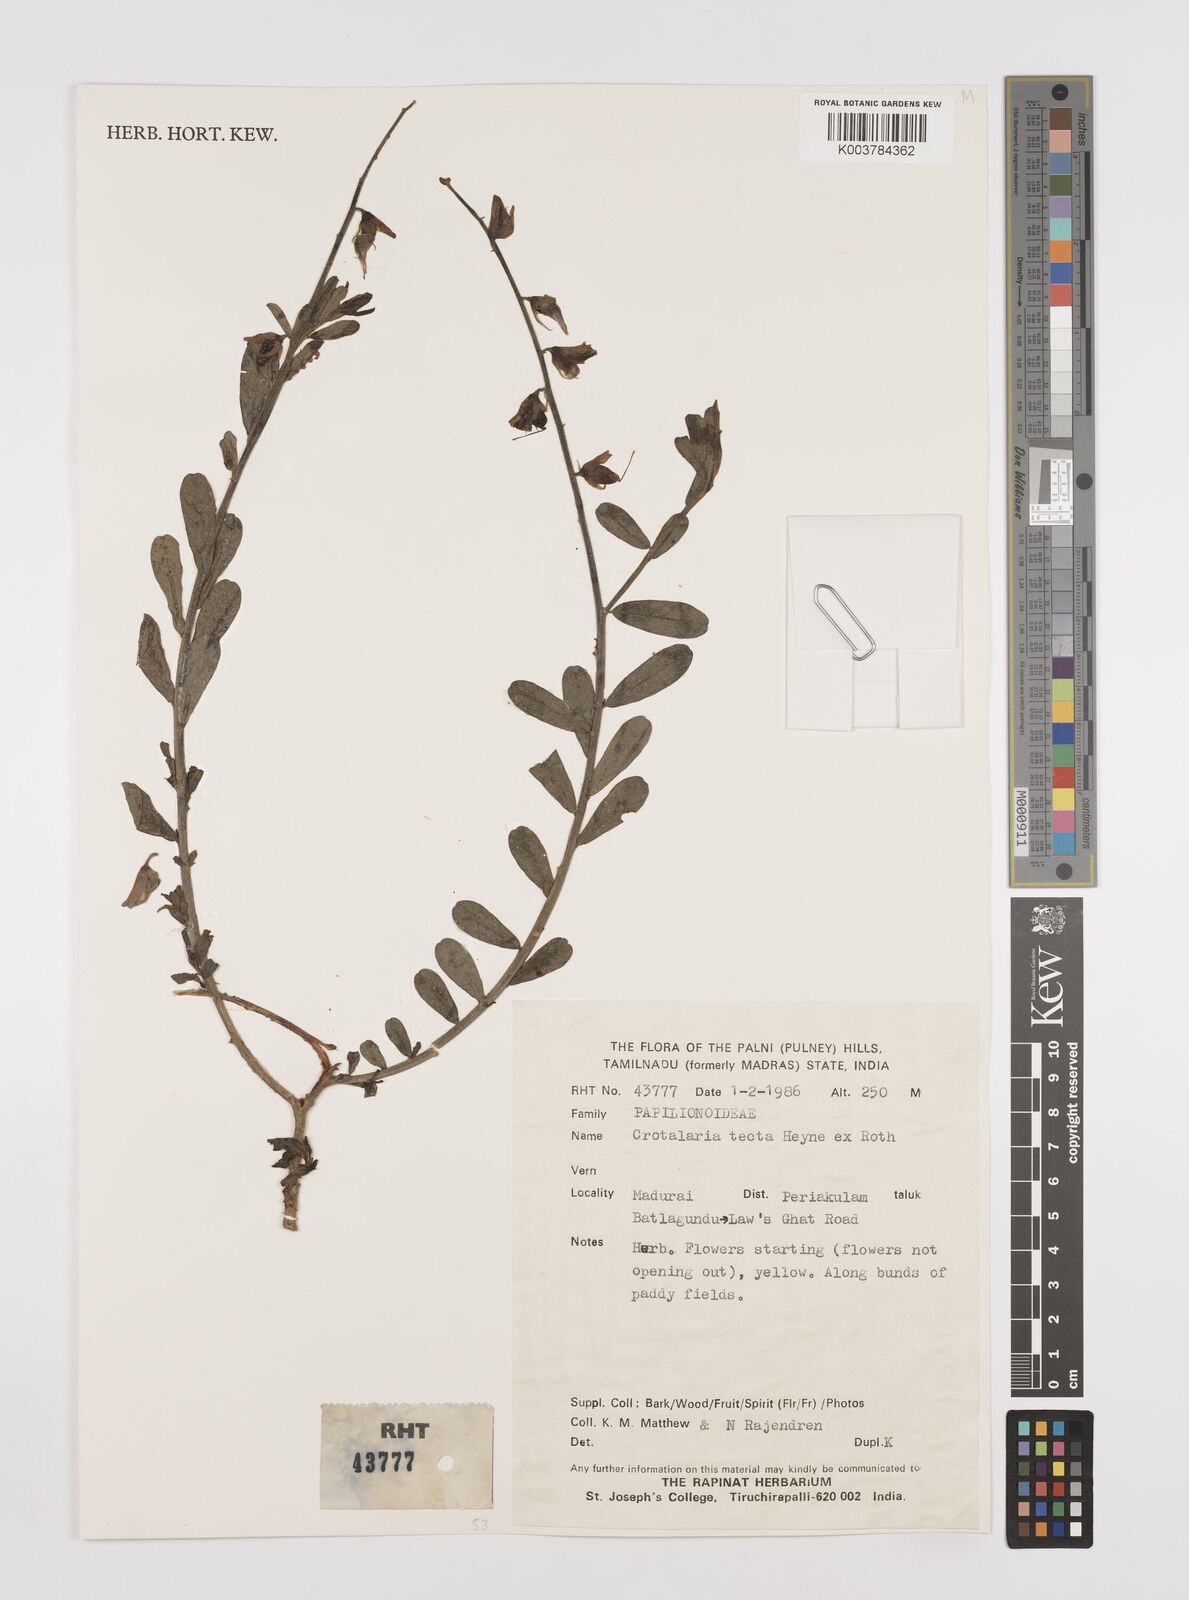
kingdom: Plantae
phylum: Tracheophyta
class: Magnoliopsida
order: Fabales
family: Fabaceae
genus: Crotalaria
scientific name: Crotalaria linifolia
